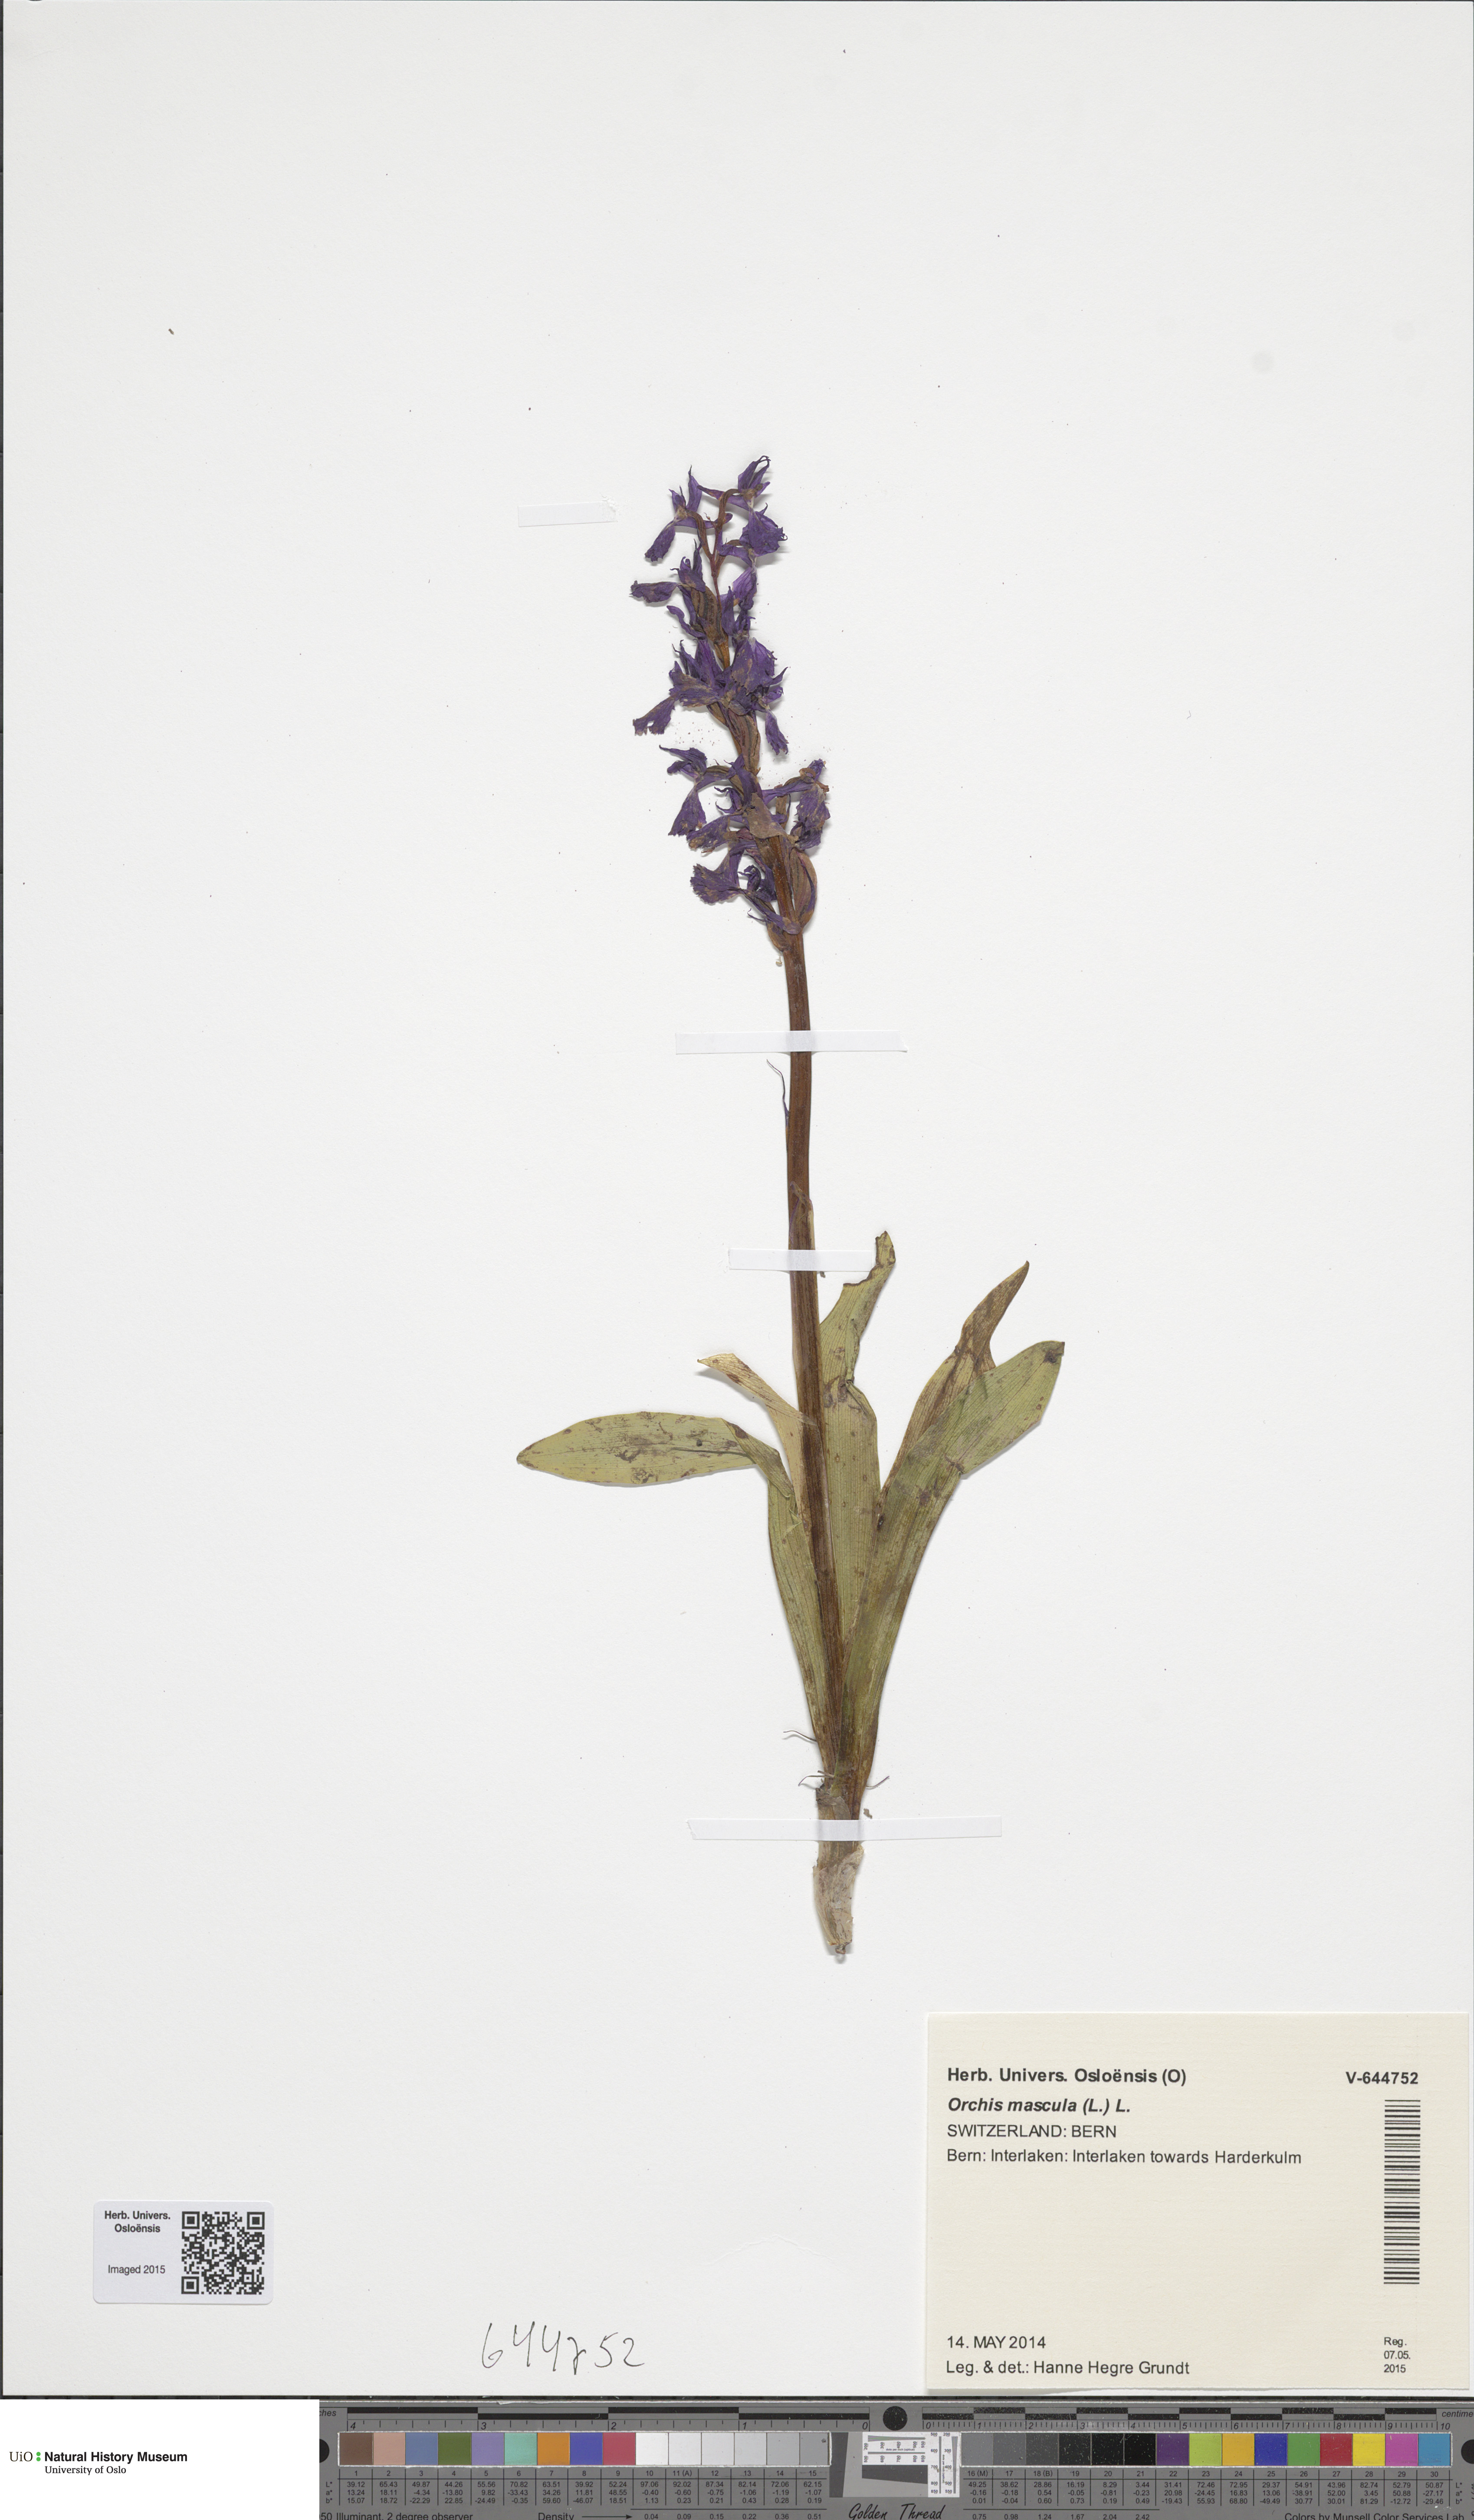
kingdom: Plantae
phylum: Tracheophyta
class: Liliopsida
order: Asparagales
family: Orchidaceae
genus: Orchis
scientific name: Orchis mascula
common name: Early-purple orchid
